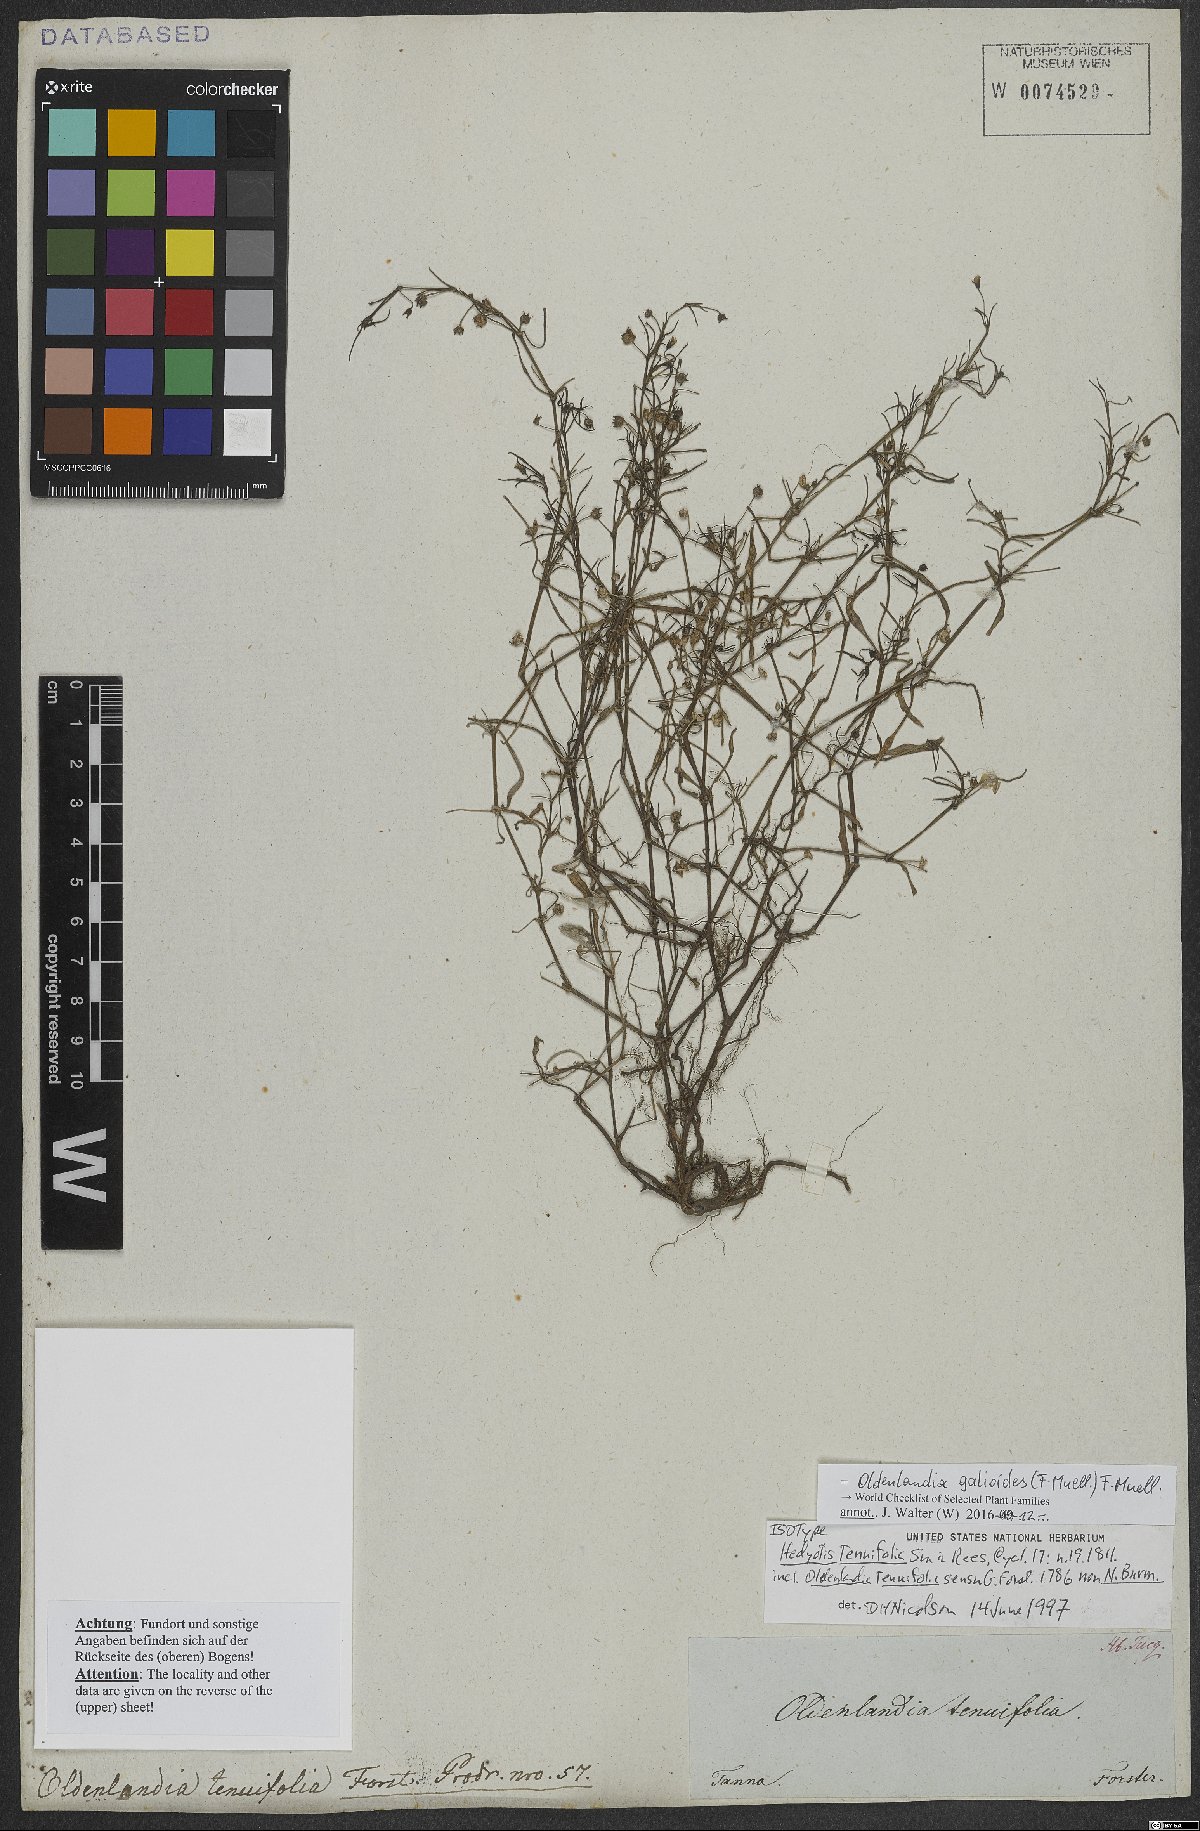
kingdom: Plantae
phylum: Tracheophyta
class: Magnoliopsida
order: Gentianales
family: Rubiaceae
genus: Scleromitrion
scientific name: Scleromitrion galioides
